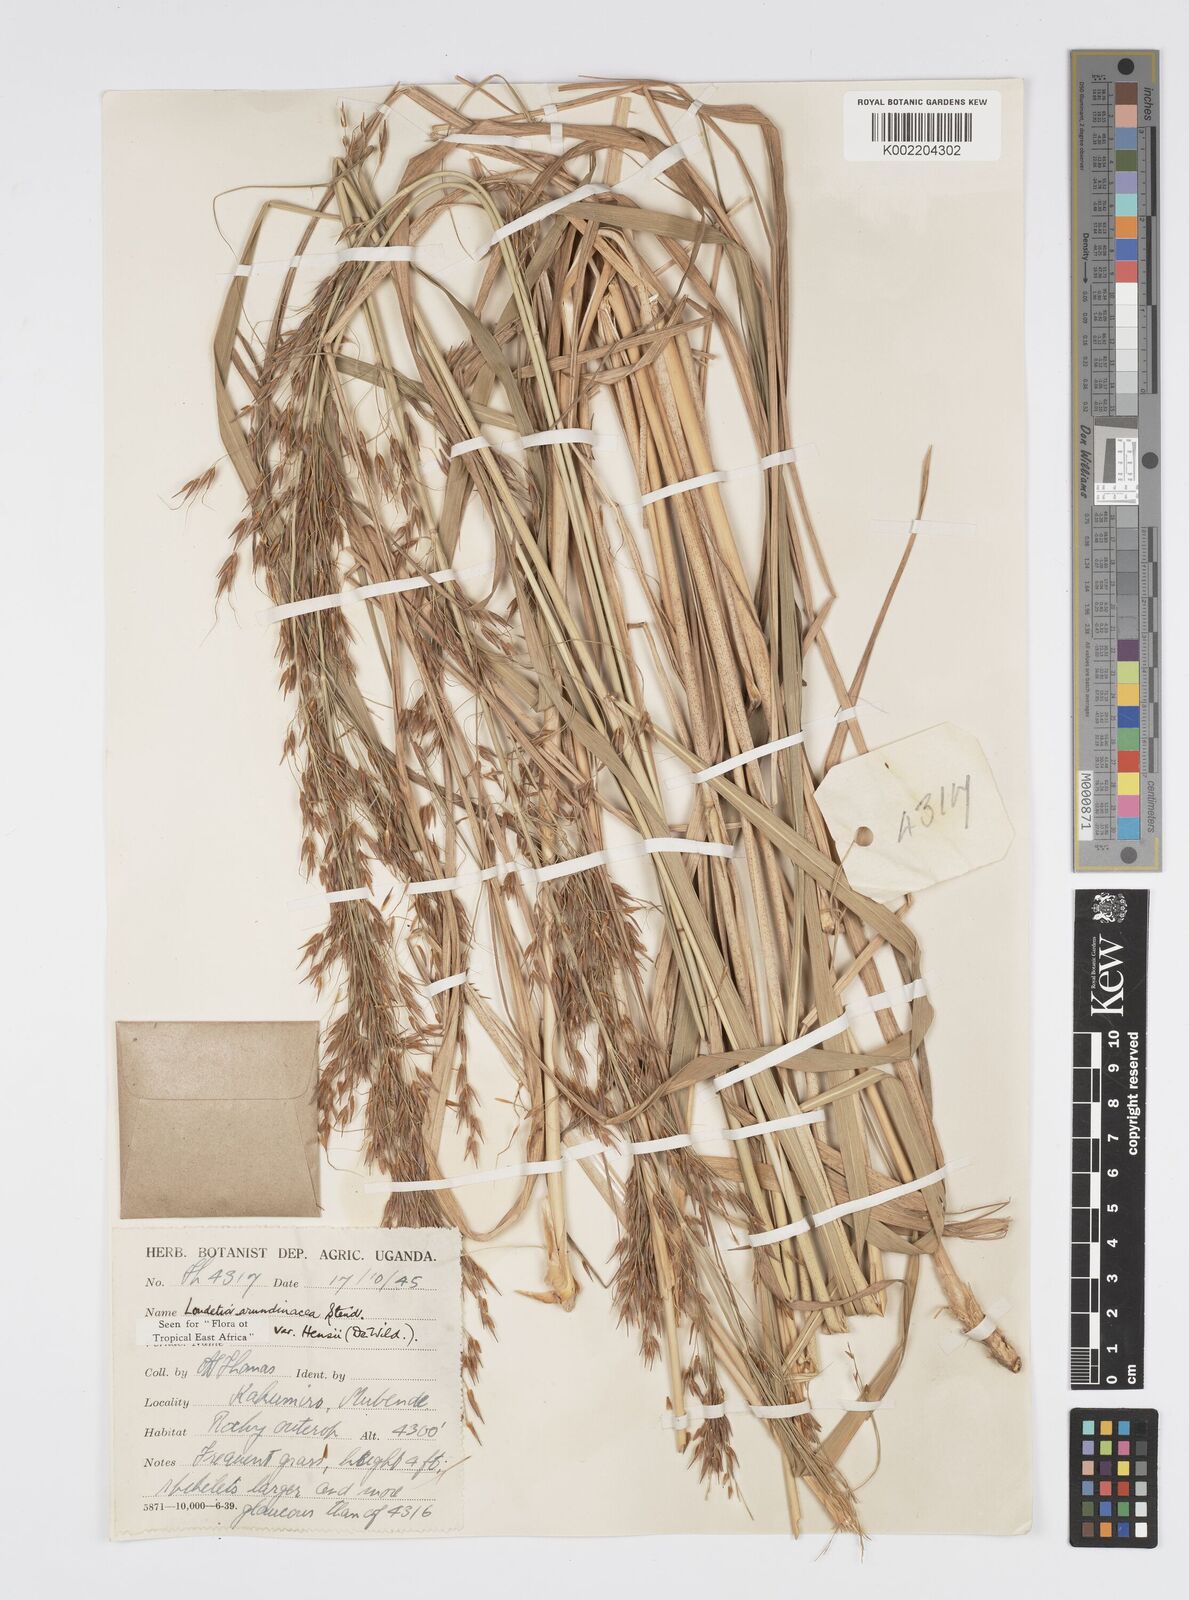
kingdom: Plantae
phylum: Tracheophyta
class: Liliopsida
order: Poales
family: Poaceae
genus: Loudetia
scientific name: Loudetia arundinacea
